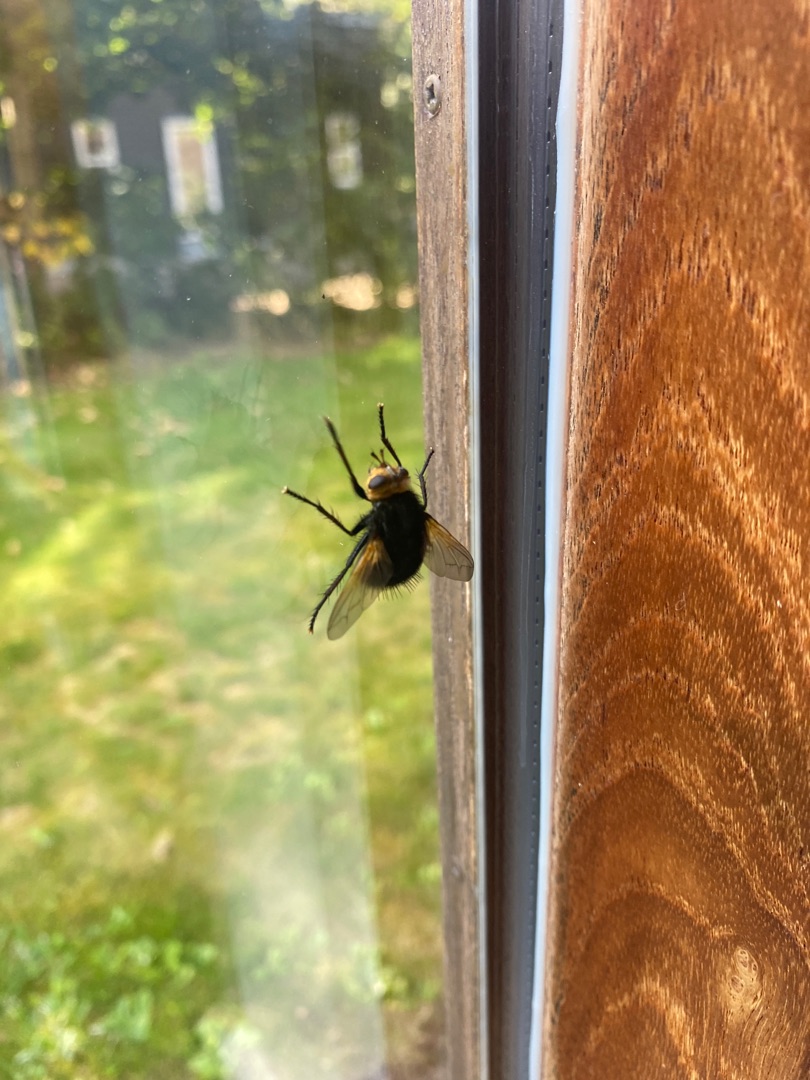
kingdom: Animalia
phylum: Arthropoda
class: Insecta
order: Diptera
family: Tachinidae
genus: Tachina
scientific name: Tachina grossa
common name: Kæmpefluen Harald
